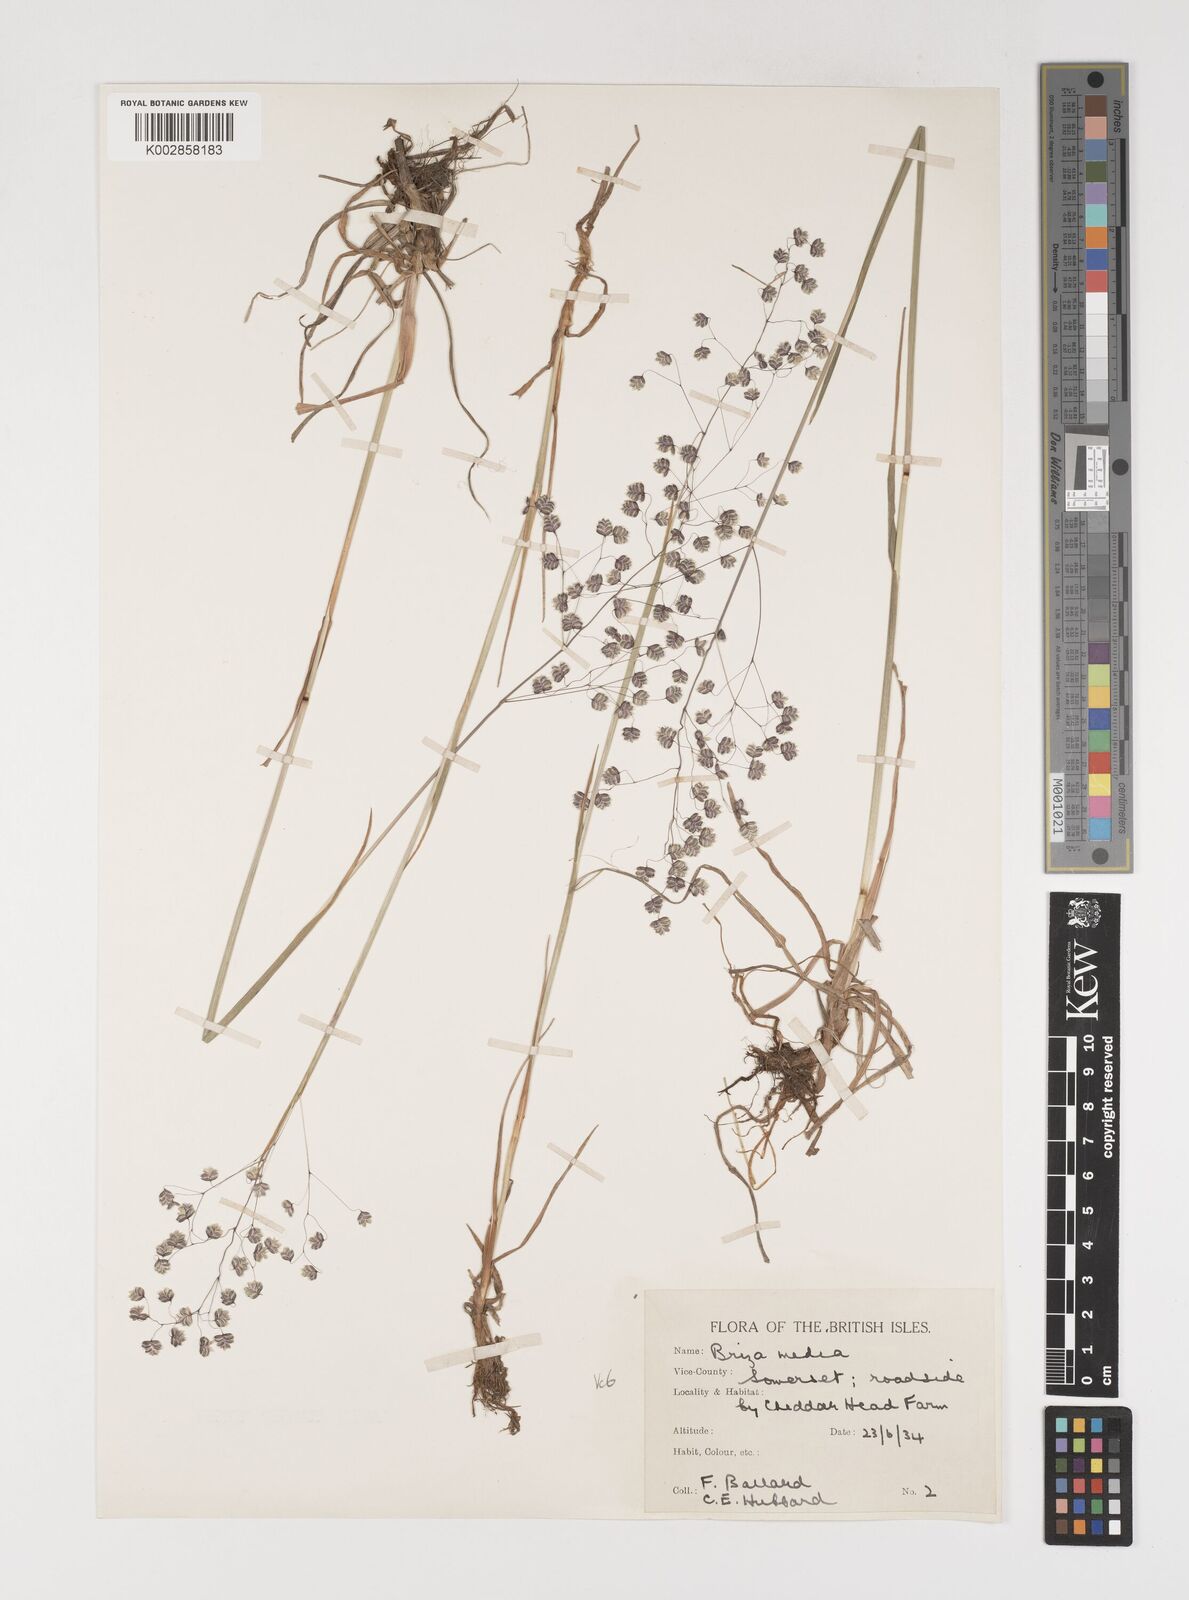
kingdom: Plantae
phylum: Tracheophyta
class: Liliopsida
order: Poales
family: Poaceae
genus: Briza
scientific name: Briza media
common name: Quaking grass
